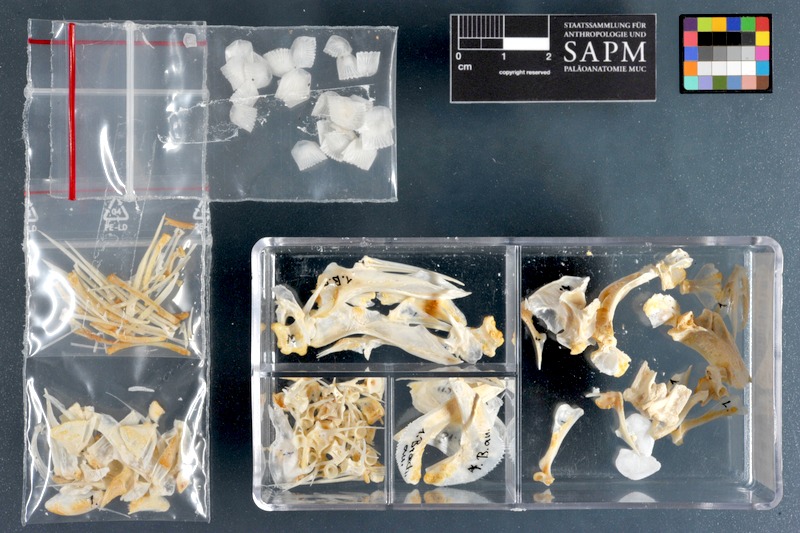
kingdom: Animalia
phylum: Chordata
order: Perciformes
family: Haemulidae
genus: Brachydeuterus
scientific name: Brachydeuterus auritus
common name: Bigeye grunt
